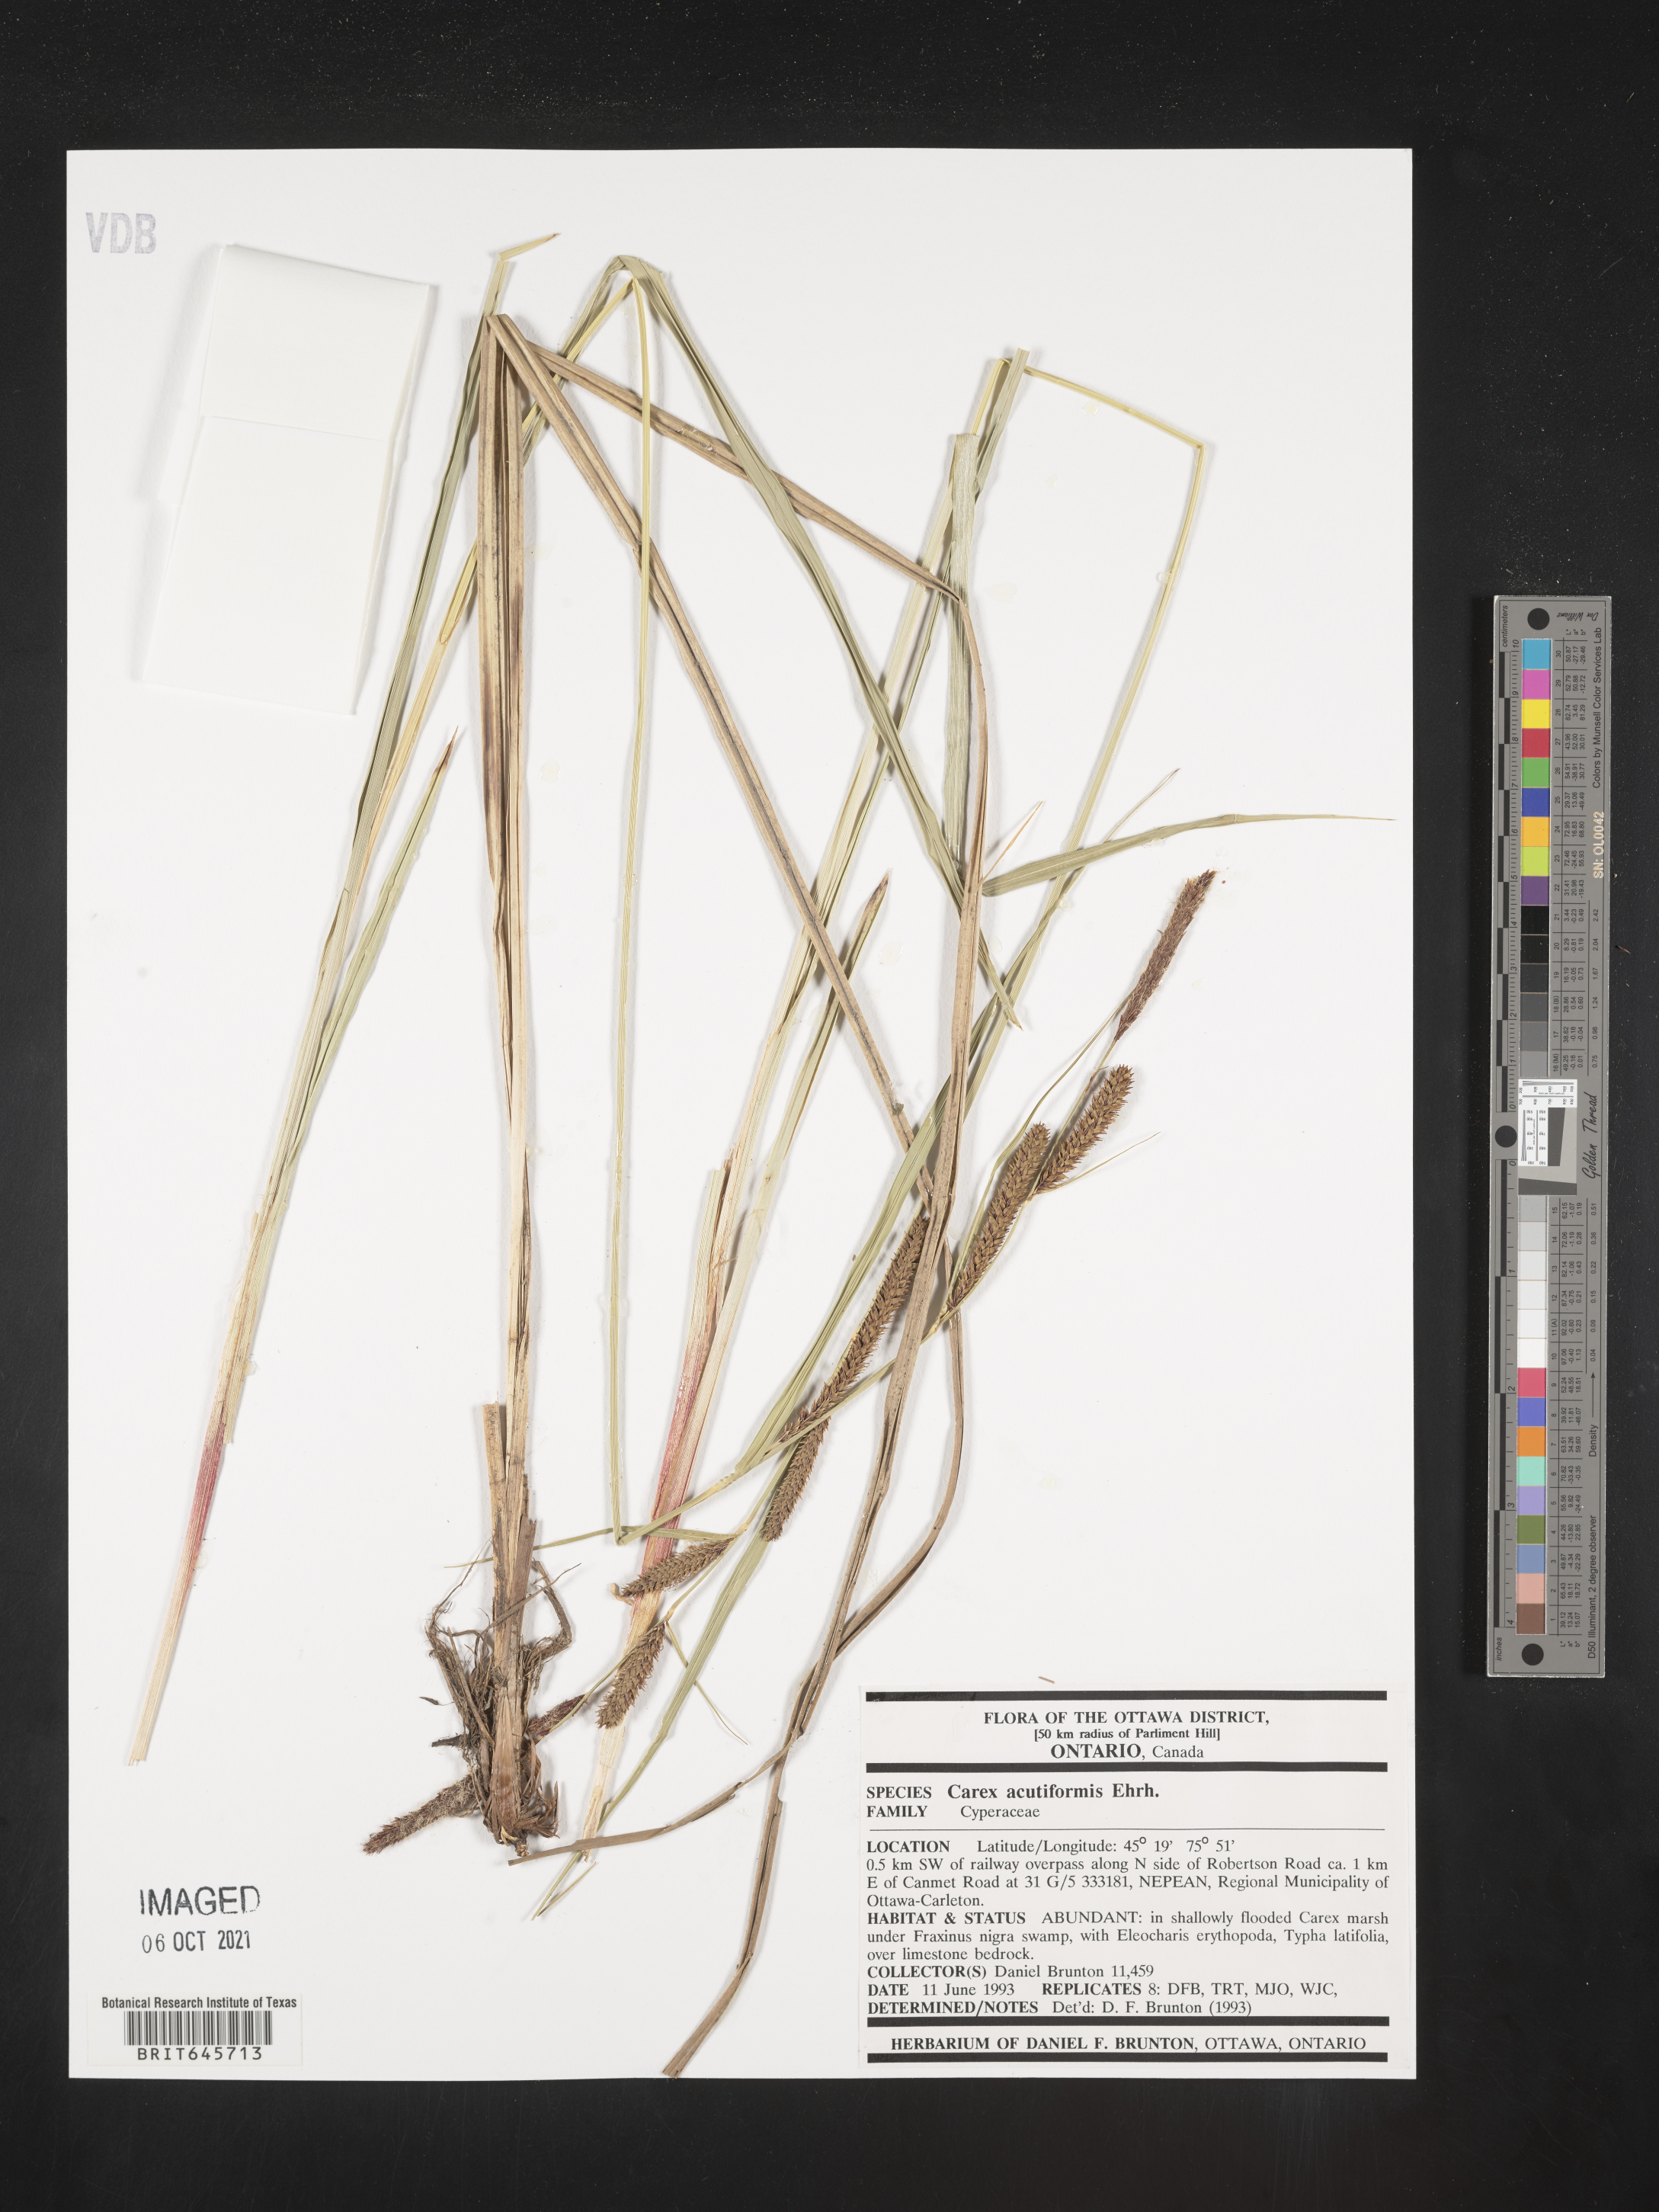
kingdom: Plantae
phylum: Tracheophyta
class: Liliopsida
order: Poales
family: Cyperaceae
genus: Carex
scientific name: Carex acutiformis
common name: Lesser pond-sedge
